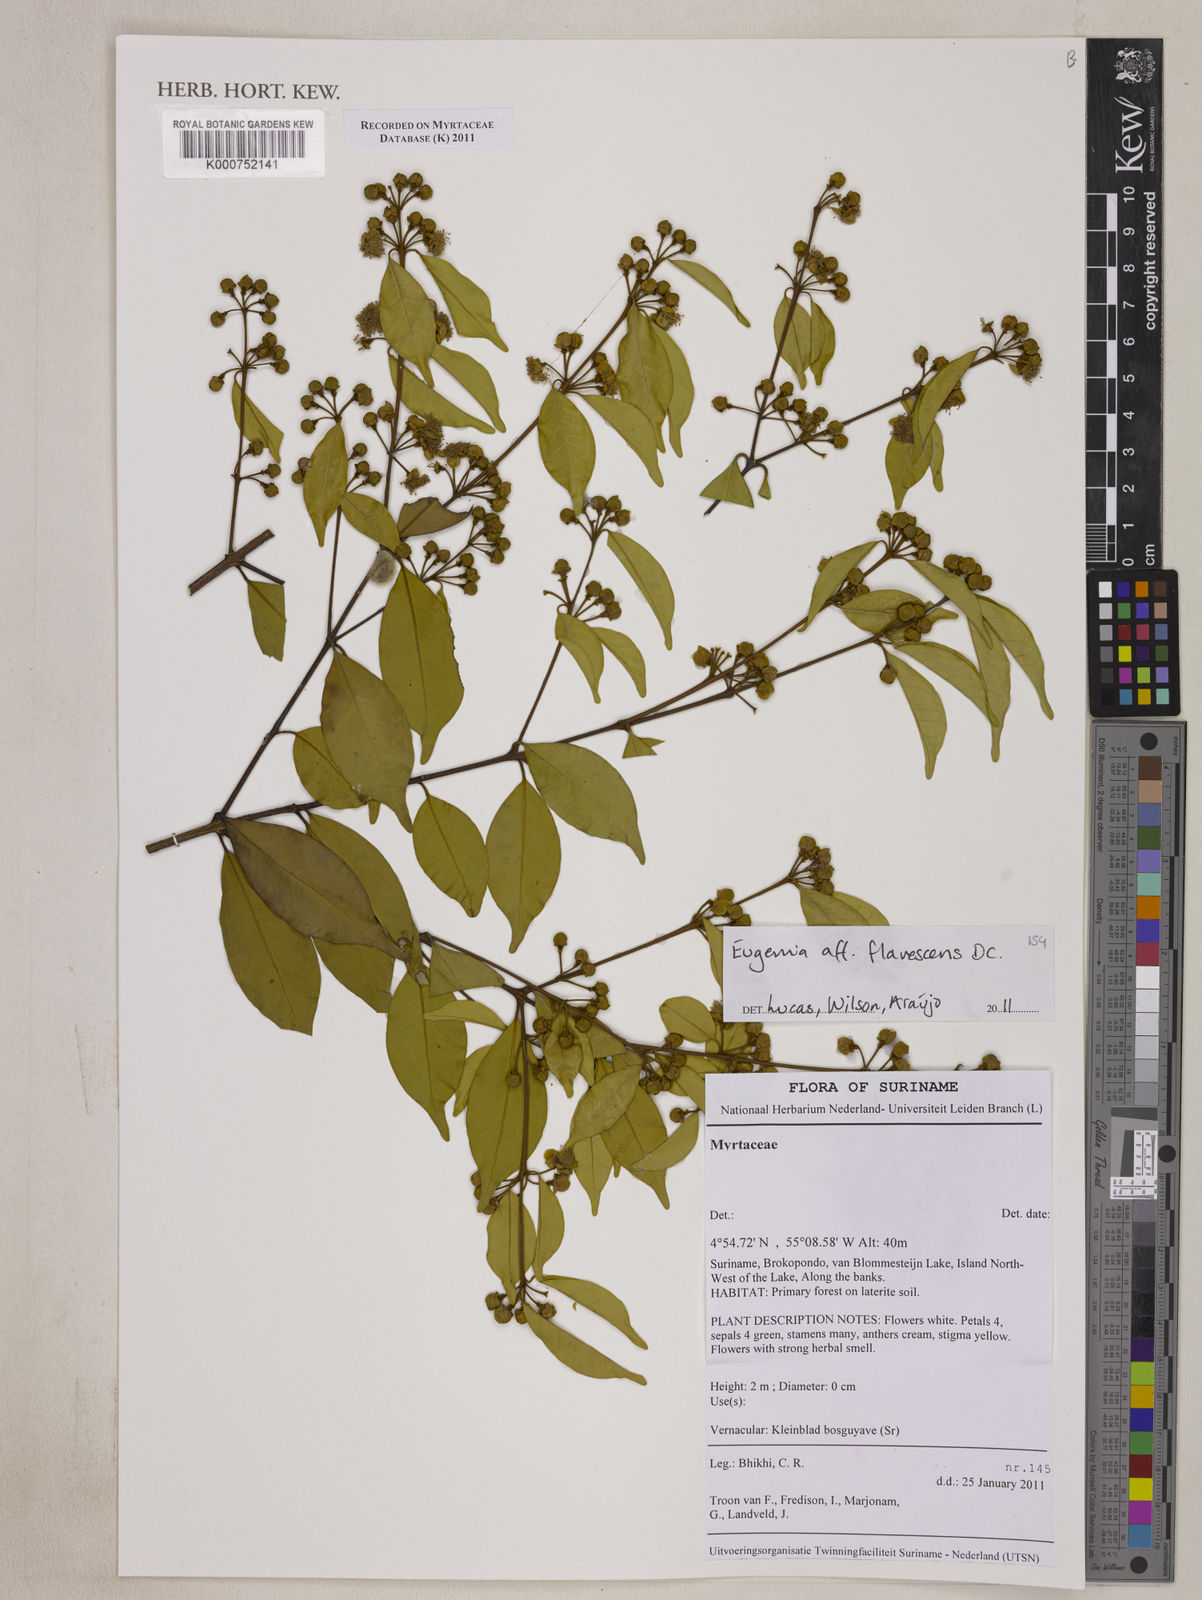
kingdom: Plantae
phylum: Tracheophyta
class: Magnoliopsida
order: Myrtales
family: Myrtaceae
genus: Eugenia
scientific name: Eugenia flavescens
